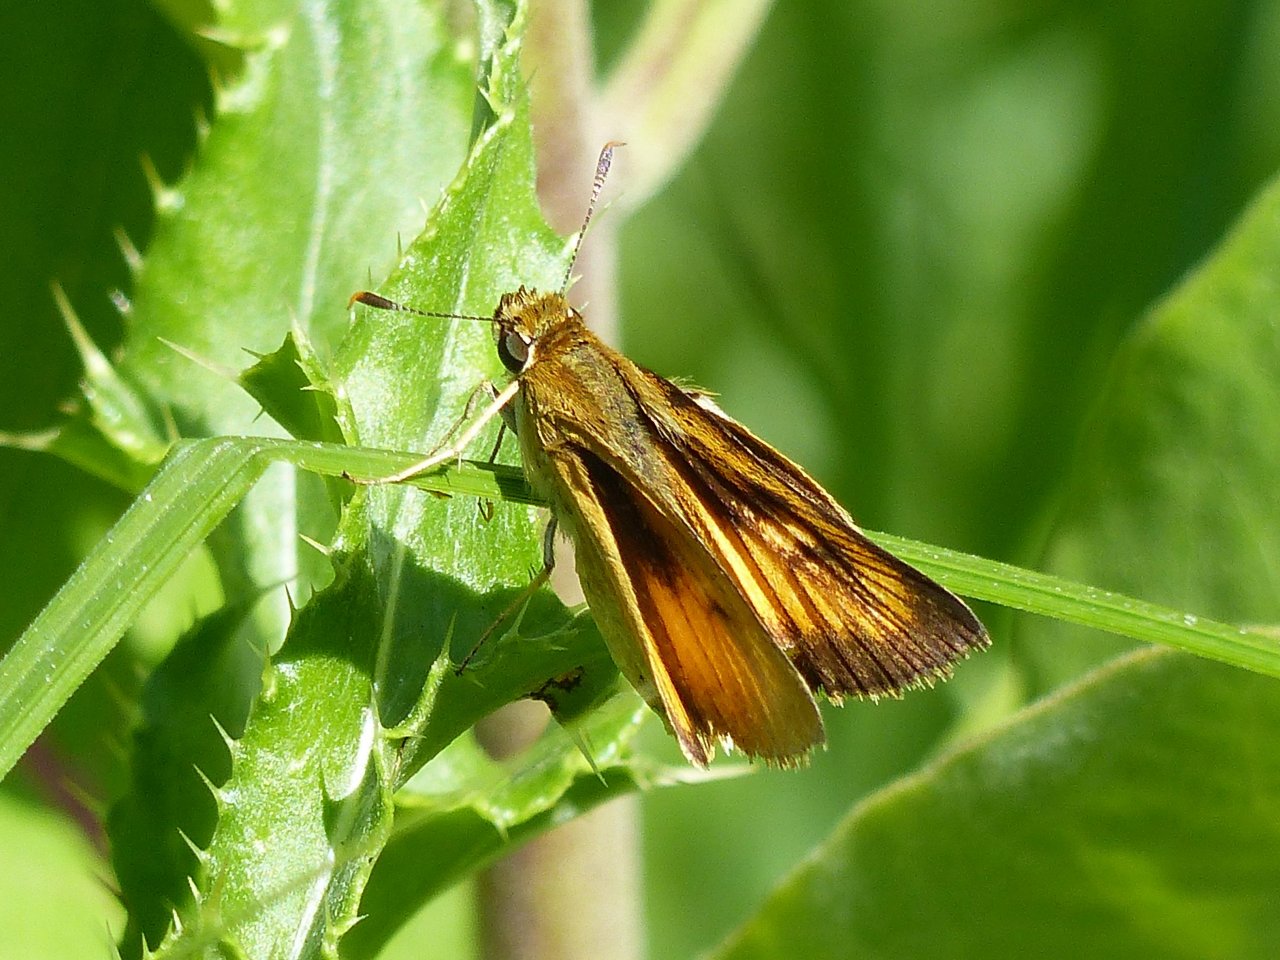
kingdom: Animalia
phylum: Arthropoda
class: Insecta
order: Lepidoptera
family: Hesperiidae
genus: Atrytone
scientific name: Atrytone delaware
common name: Delaware Skipper
